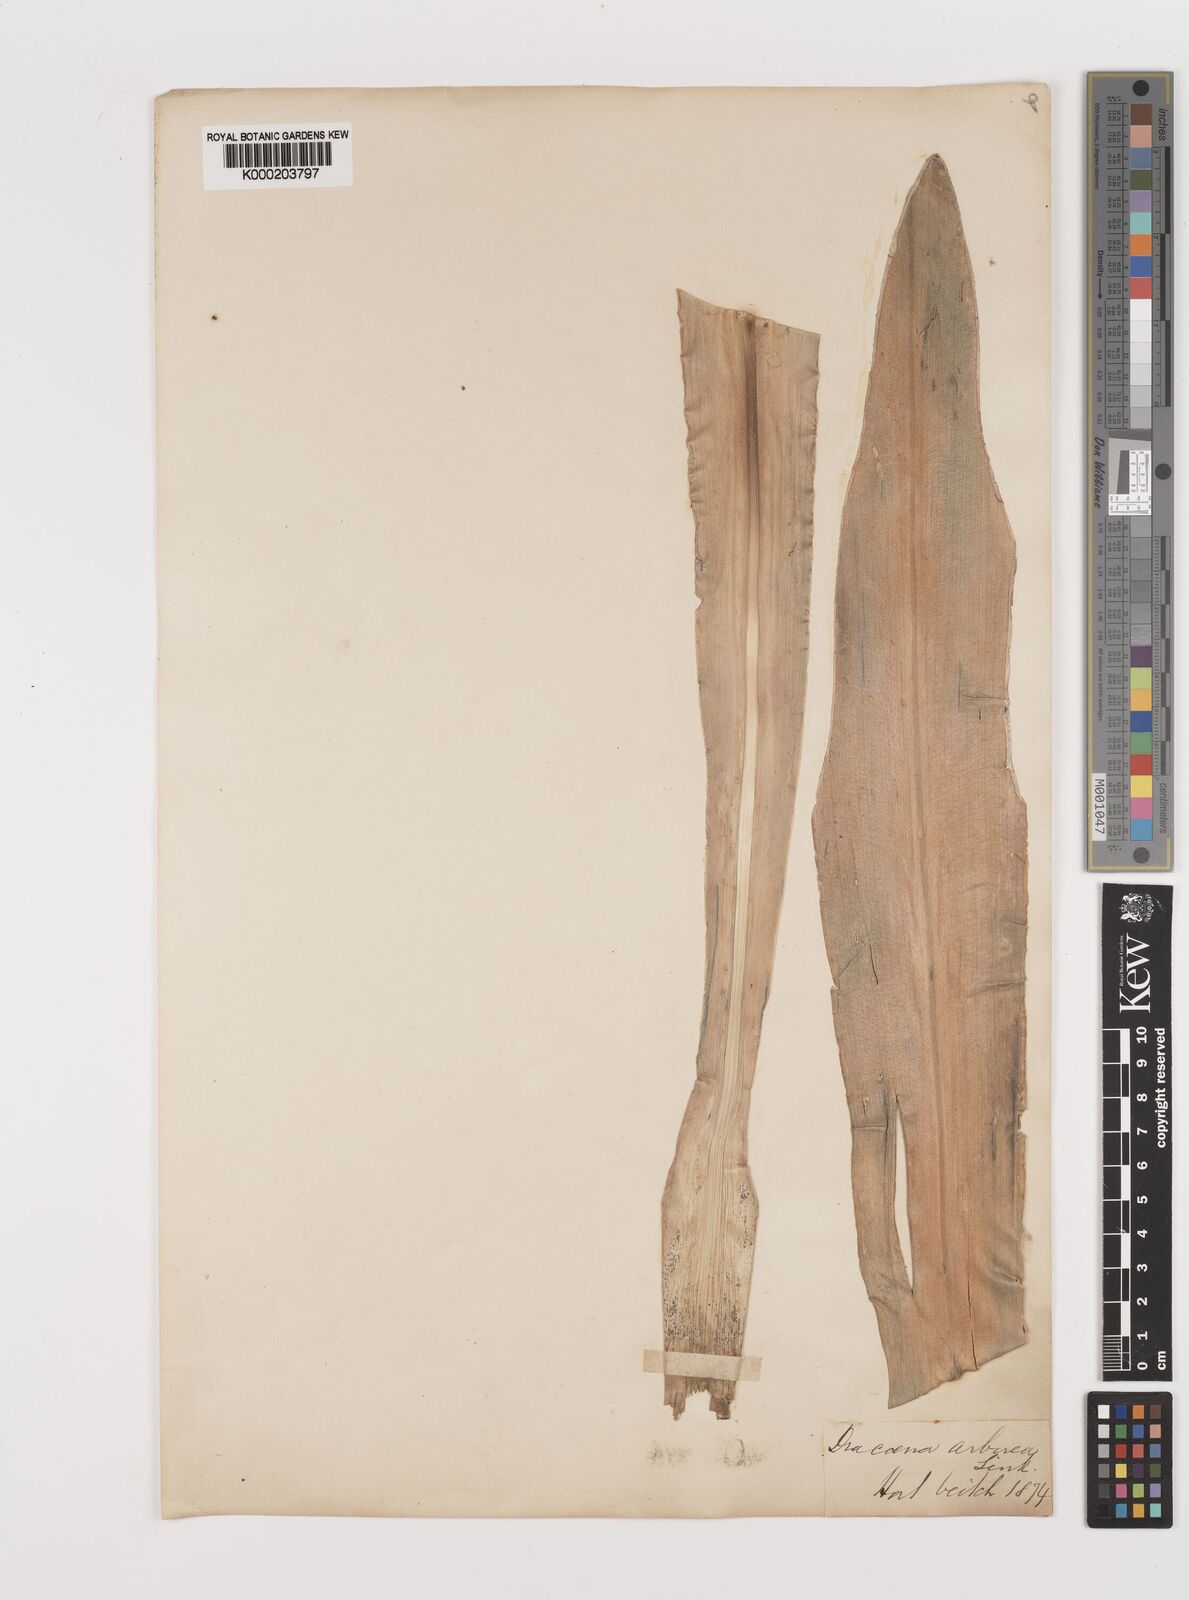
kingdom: Plantae
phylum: Tracheophyta
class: Liliopsida
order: Asparagales
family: Asparagaceae
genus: Dracaena
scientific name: Dracaena arborea
